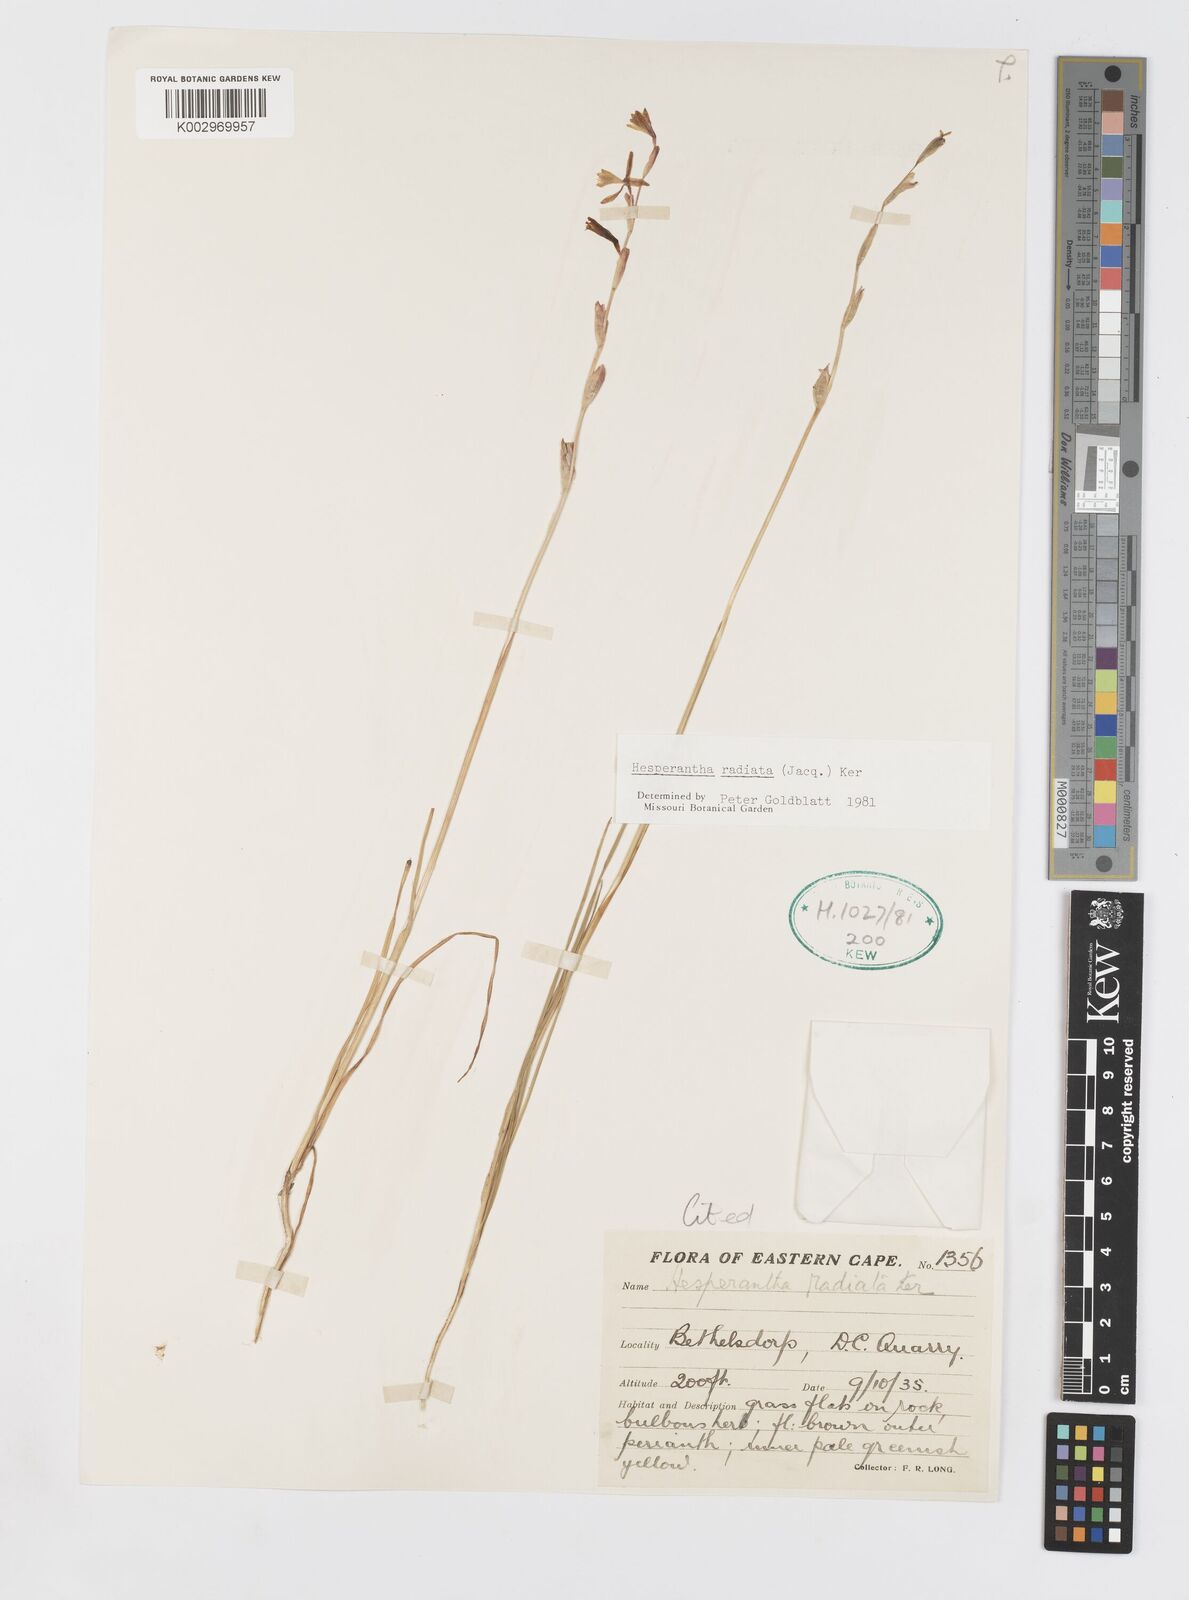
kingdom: Plantae
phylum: Tracheophyta
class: Liliopsida
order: Asparagales
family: Iridaceae
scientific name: Iridaceae
